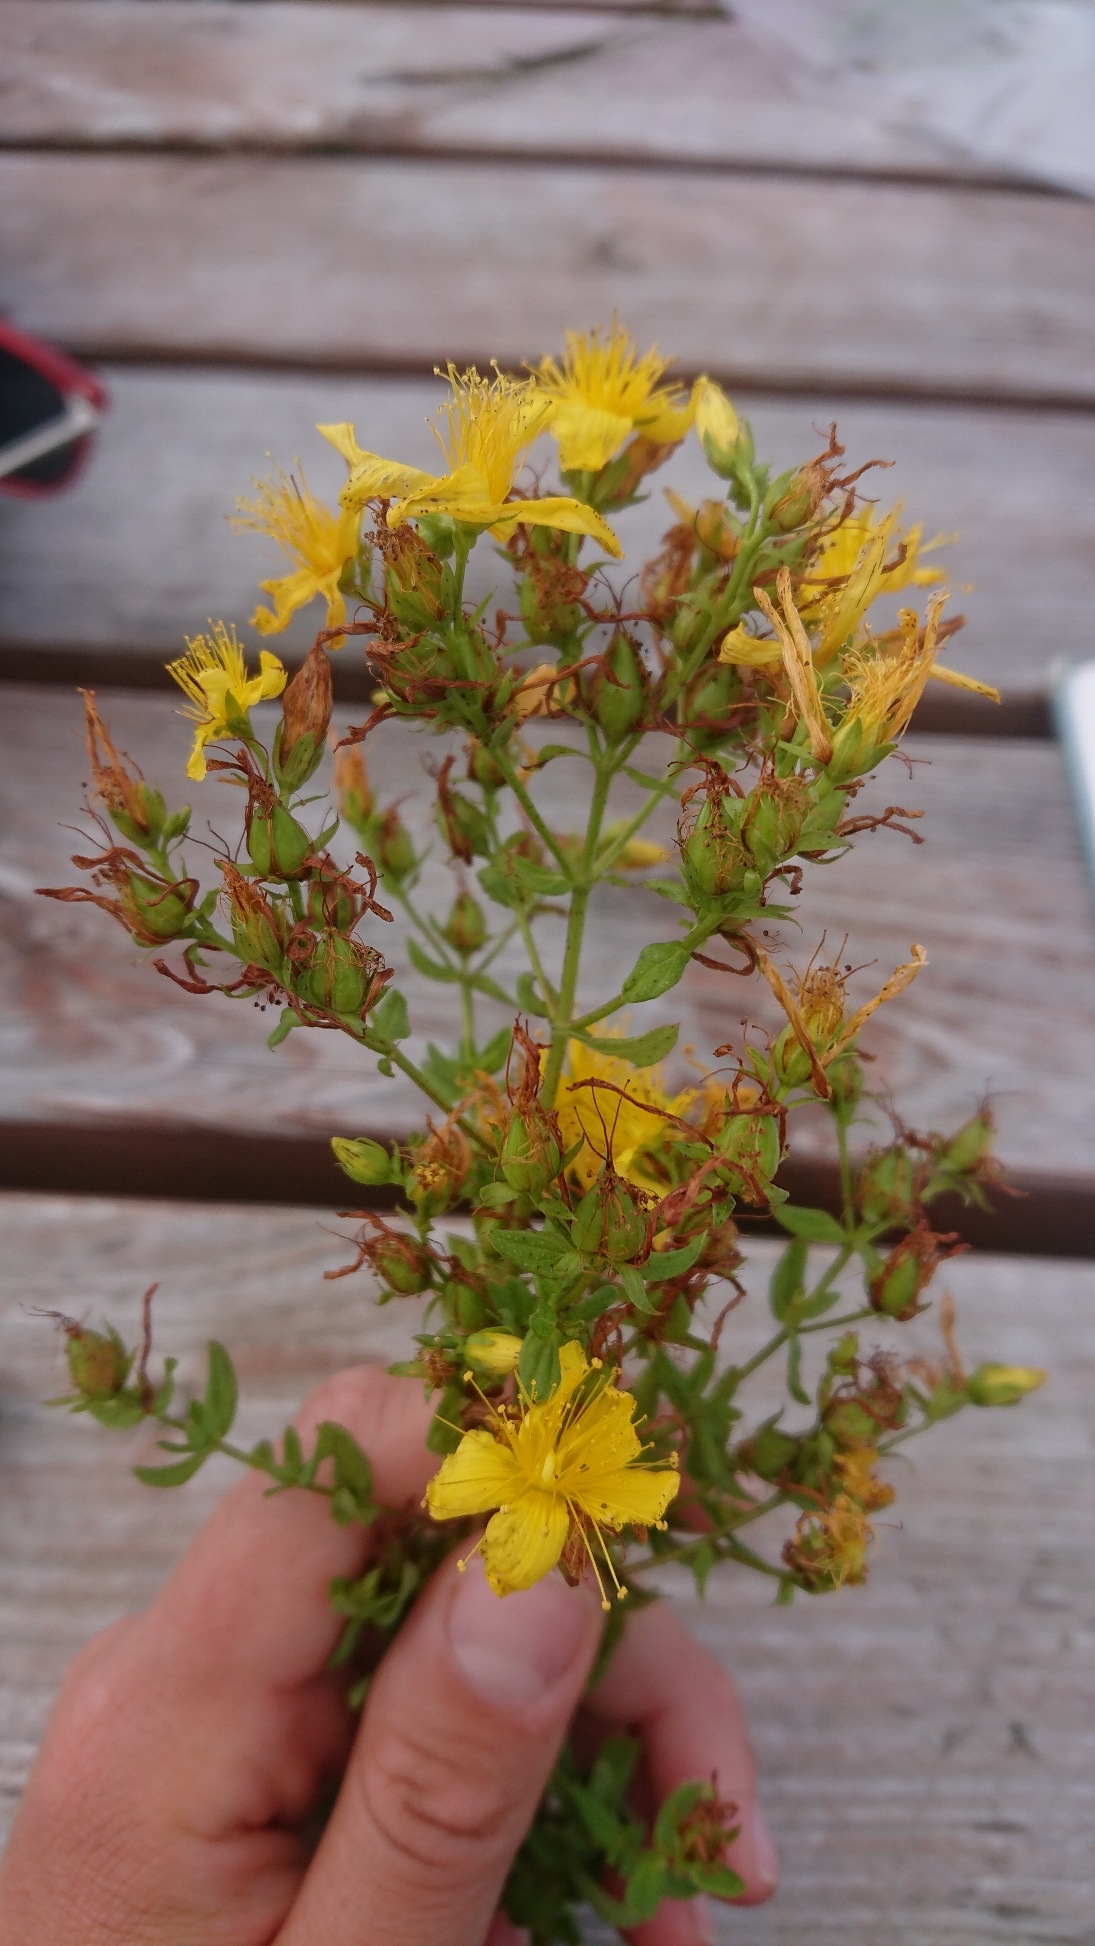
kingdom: Plantae
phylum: Tracheophyta
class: Magnoliopsida
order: Malpighiales
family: Hypericaceae
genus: Hypericum
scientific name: Hypericum perforatum
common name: Prikbladet perikon
